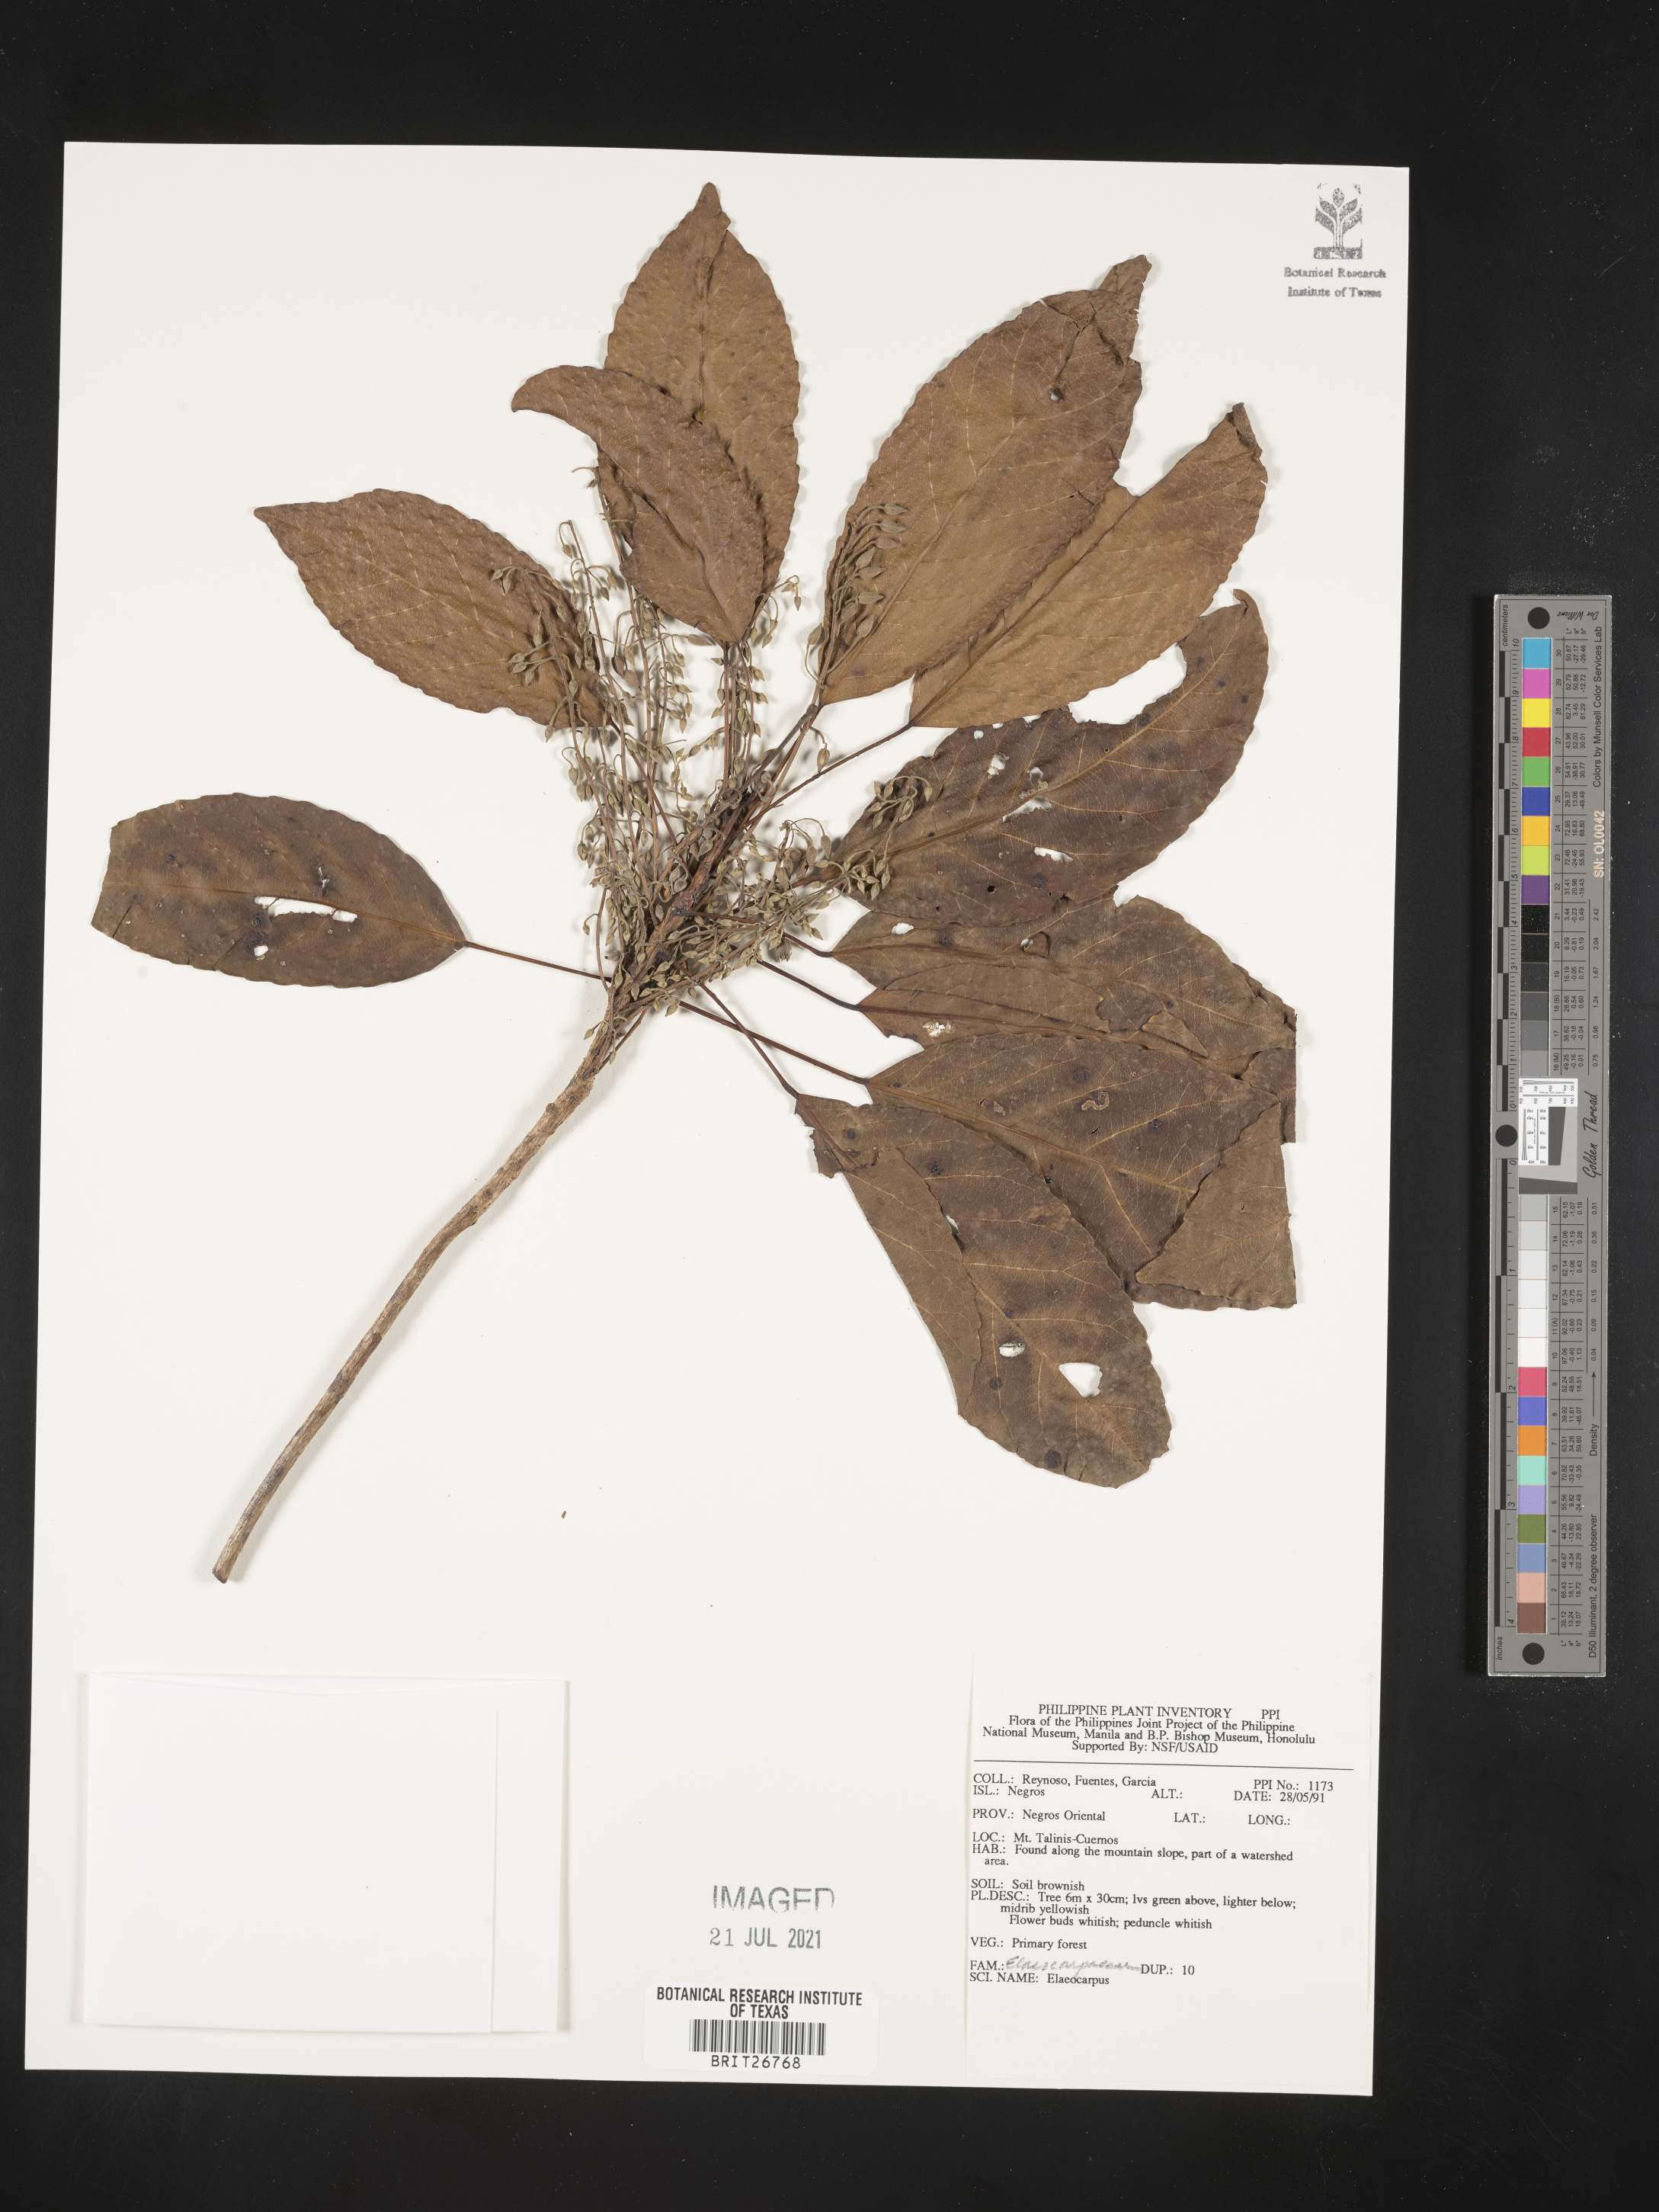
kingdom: Plantae
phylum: Tracheophyta
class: Magnoliopsida
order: Oxalidales
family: Elaeocarpaceae
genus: Elaeocarpus
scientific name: Elaeocarpus
